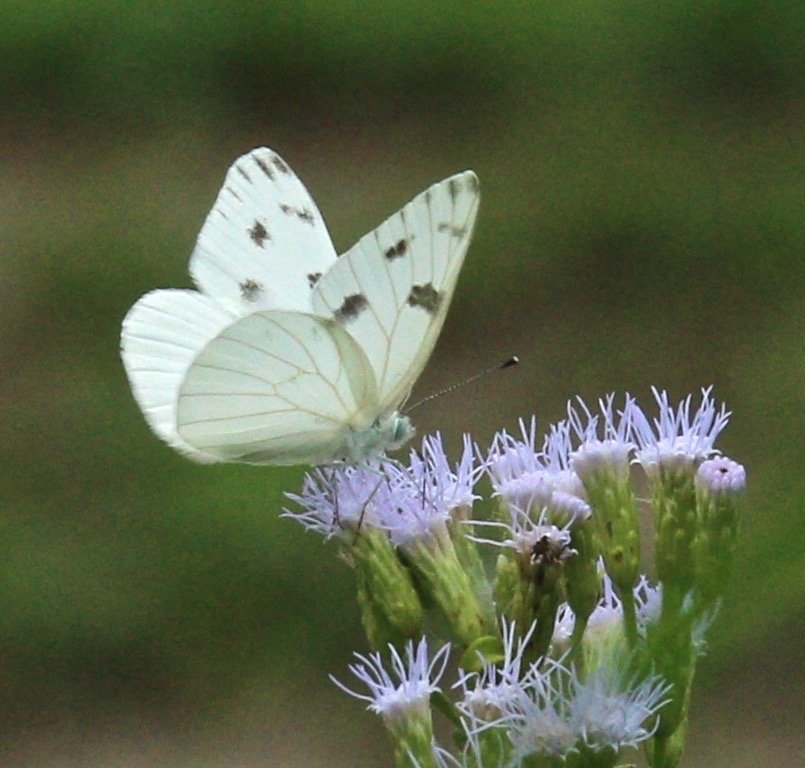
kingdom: Animalia
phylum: Arthropoda
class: Insecta
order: Lepidoptera
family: Pieridae
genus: Pontia
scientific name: Pontia protodice
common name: Checkered White
